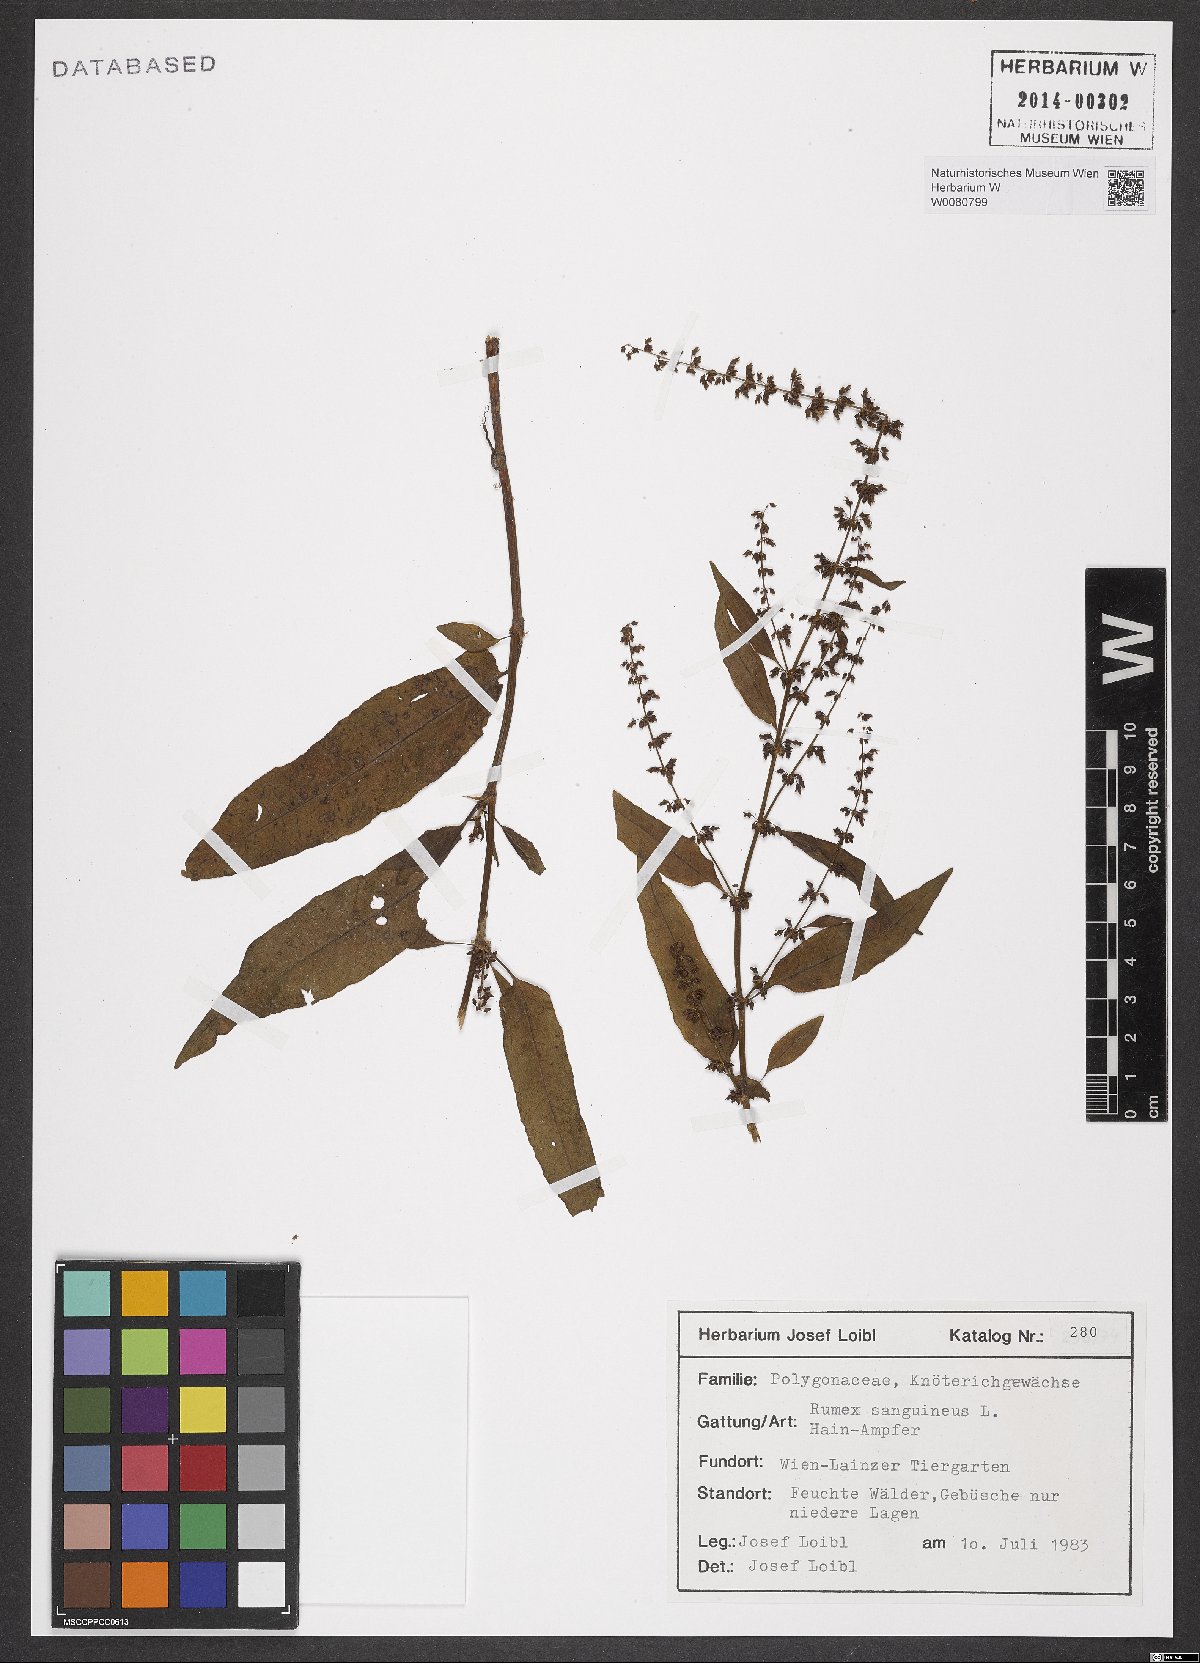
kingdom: Plantae
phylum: Tracheophyta
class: Magnoliopsida
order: Caryophyllales
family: Polygonaceae
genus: Rumex
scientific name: Rumex sanguineus
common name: Wood dock
